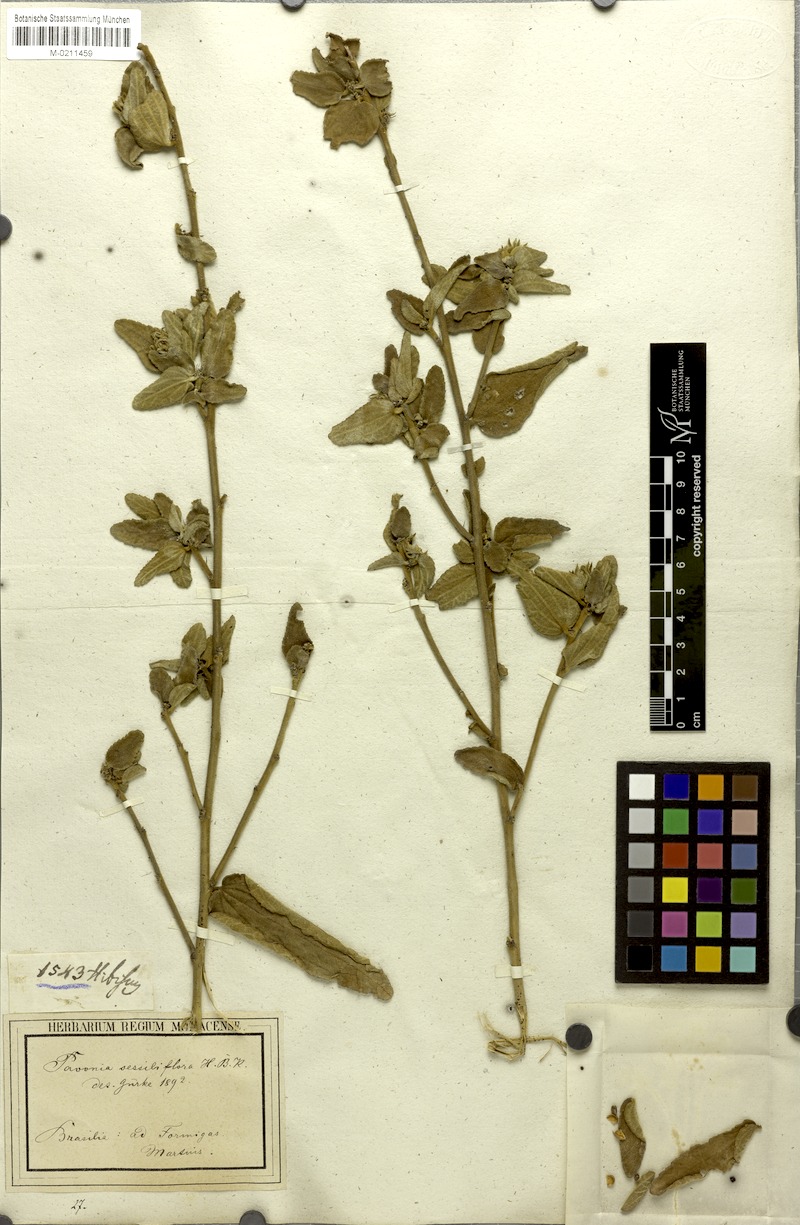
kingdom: Plantae
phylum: Tracheophyta
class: Magnoliopsida
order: Malvales
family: Malvaceae
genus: Peltaea
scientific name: Peltaea sessiliflora
